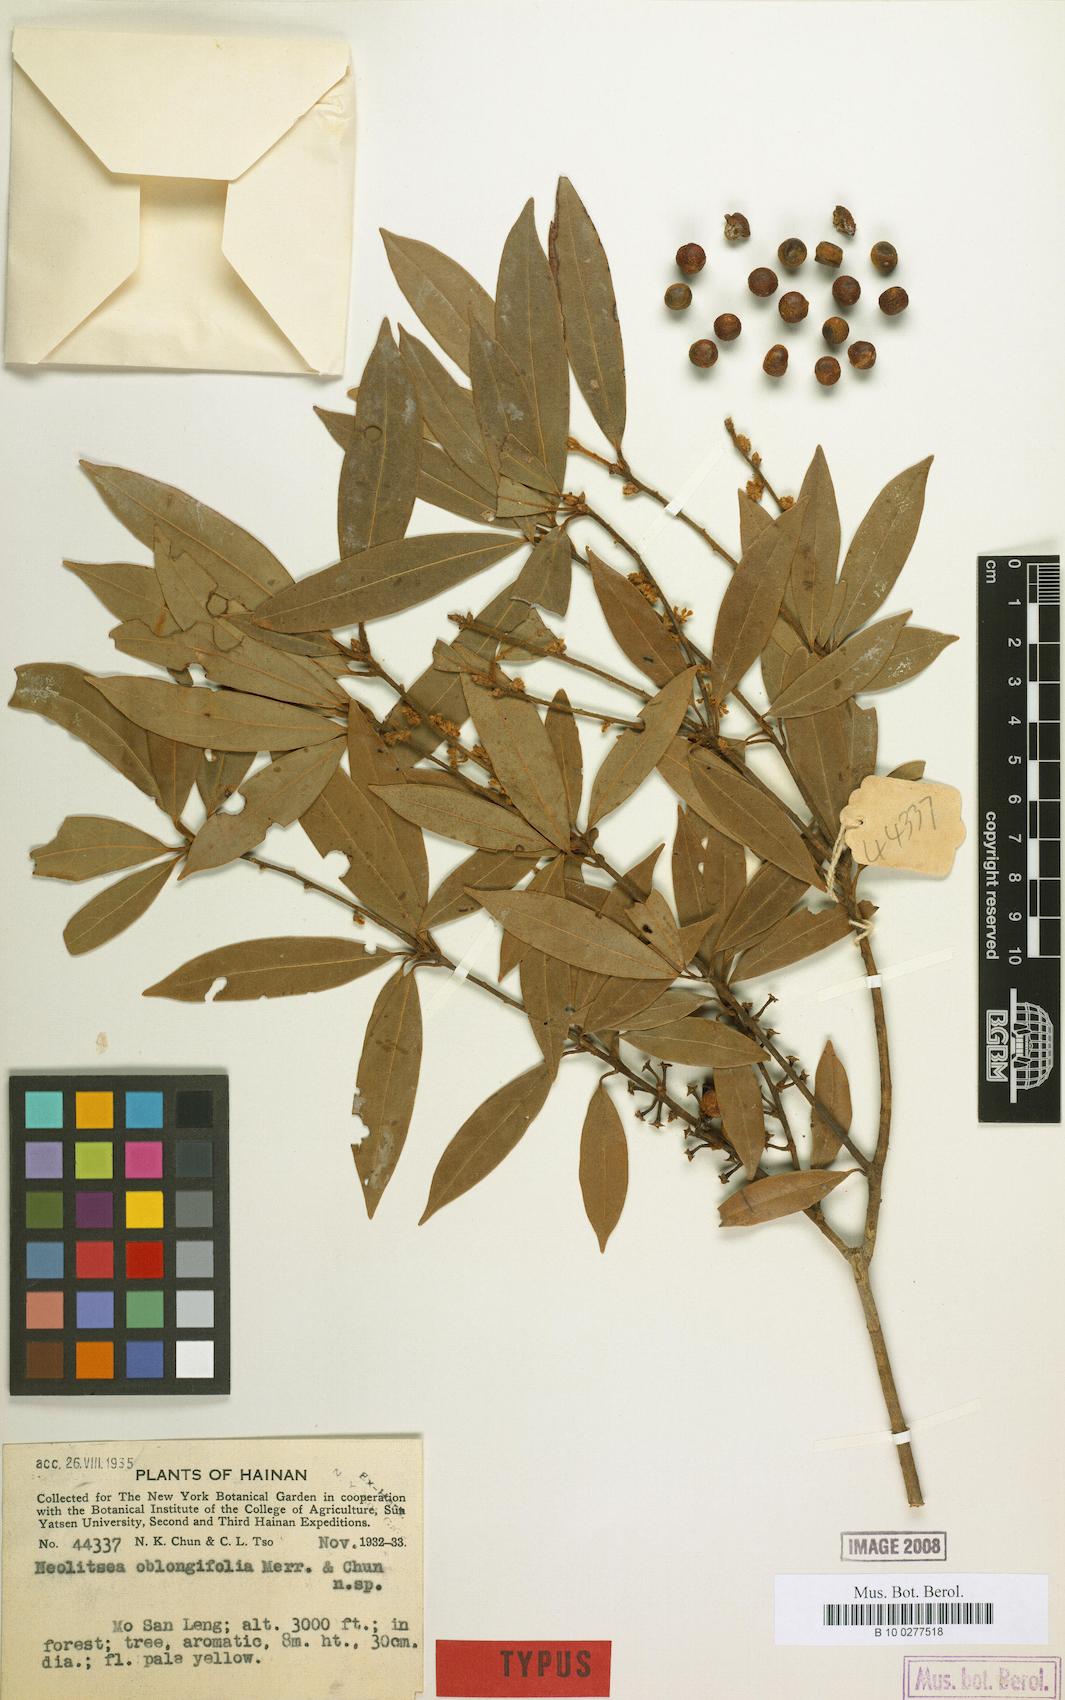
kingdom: Plantae
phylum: Tracheophyta
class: Magnoliopsida
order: Laurales
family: Lauraceae
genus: Neolitsea
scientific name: Neolitsea oblongifolia
